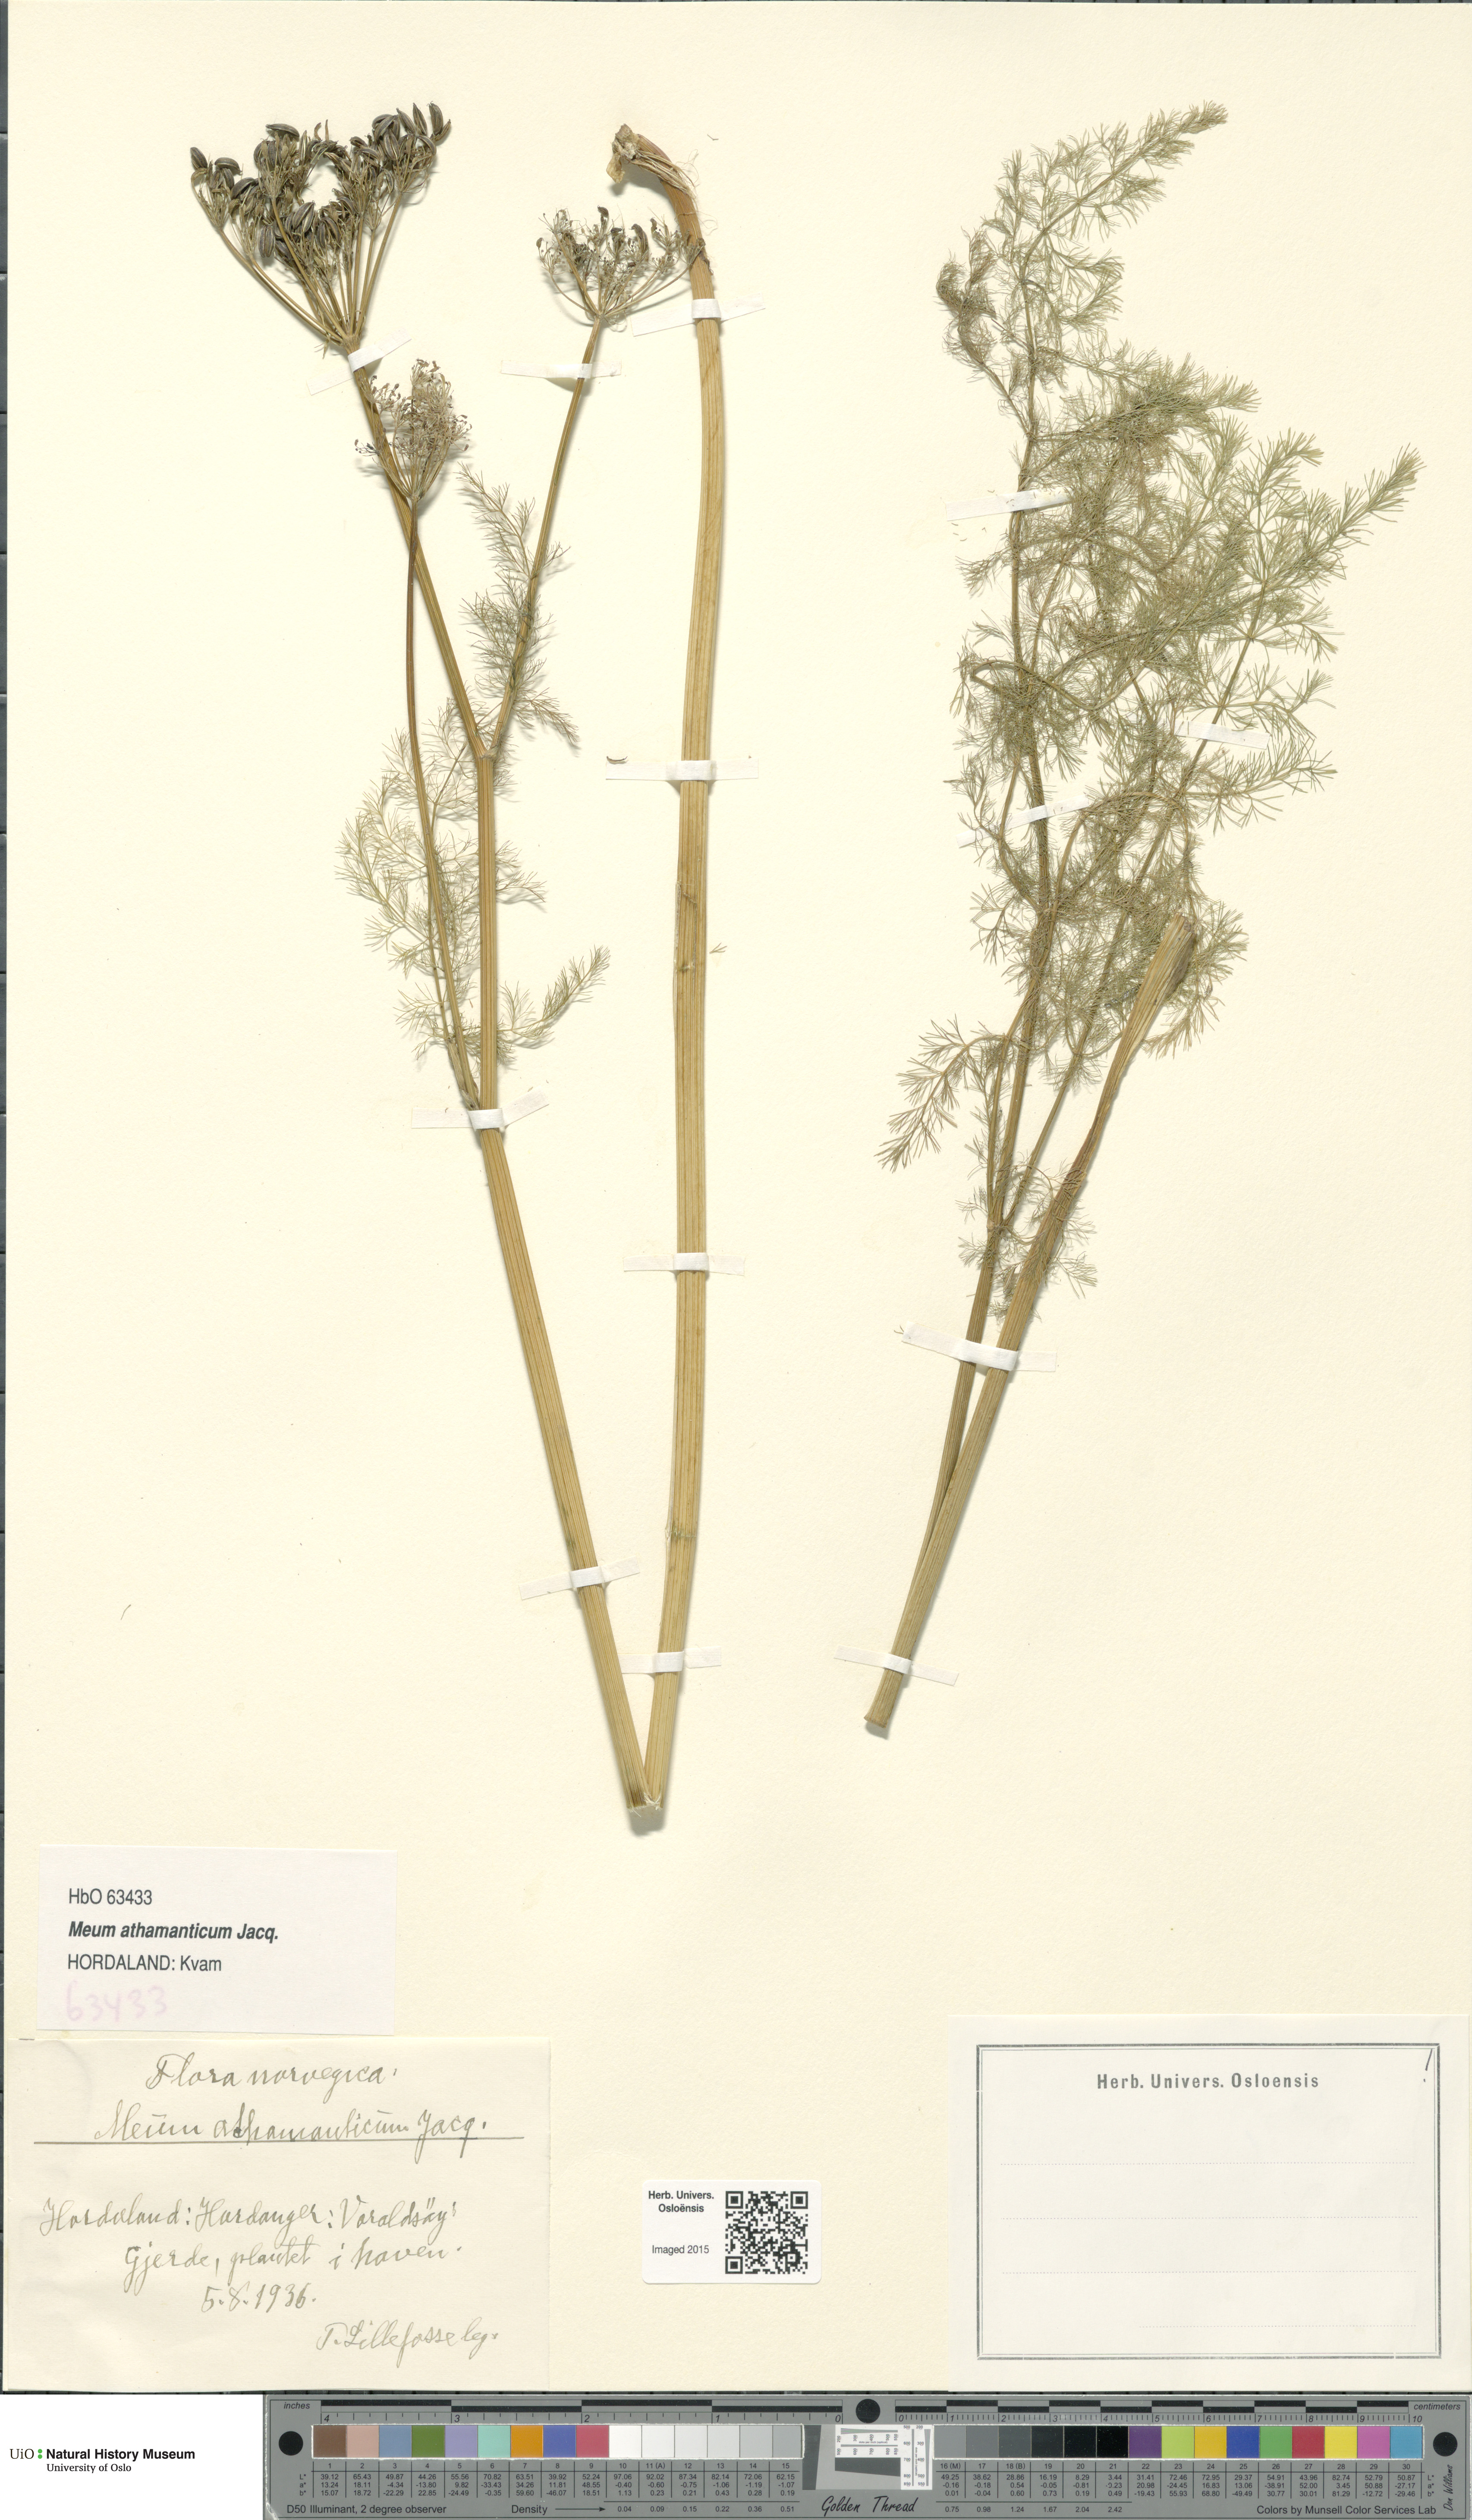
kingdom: Plantae
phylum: Tracheophyta
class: Magnoliopsida
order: Apiales
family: Apiaceae
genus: Meum
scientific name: Meum athamanticum
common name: Spignel
